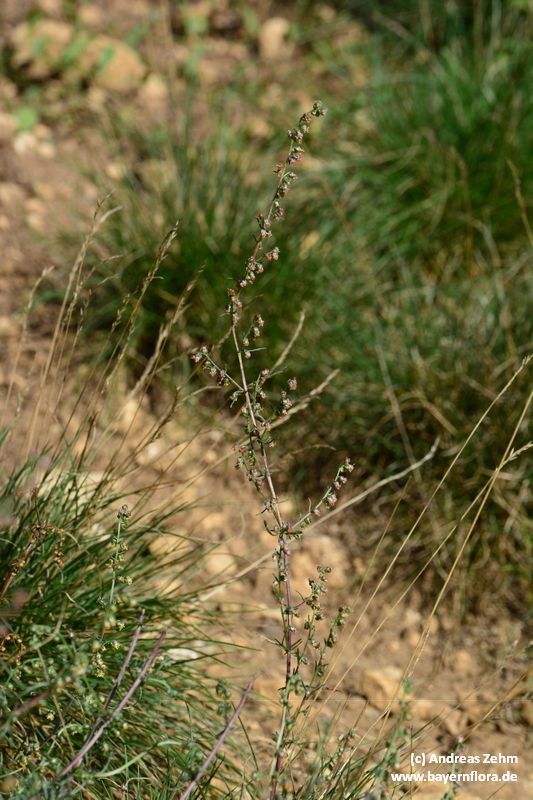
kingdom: Plantae
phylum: Tracheophyta
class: Magnoliopsida
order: Asterales
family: Asteraceae
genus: Artemisia
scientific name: Artemisia campestris
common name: Field wormwood
